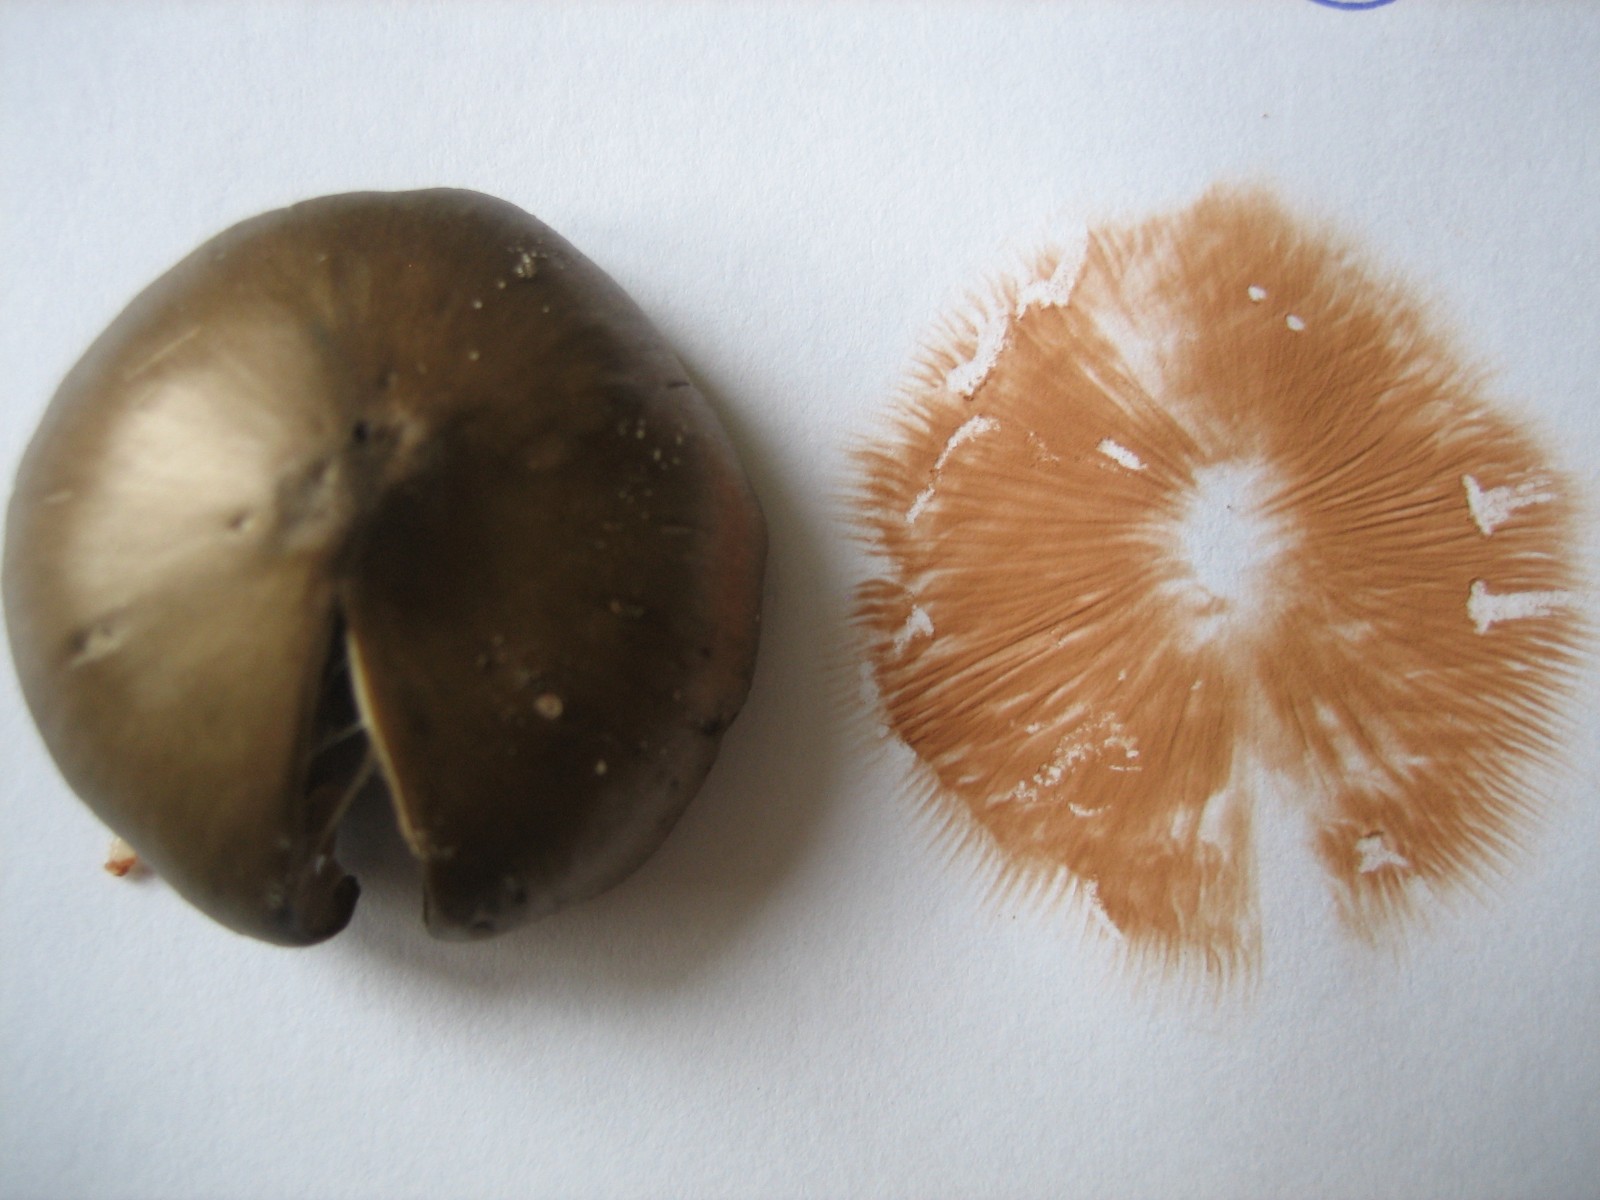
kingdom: Fungi
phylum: Basidiomycota
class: Agaricomycetes
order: Agaricales
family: Entolomataceae
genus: Entoloma
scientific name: Entoloma sericeum
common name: silkeglinsende rødblad
